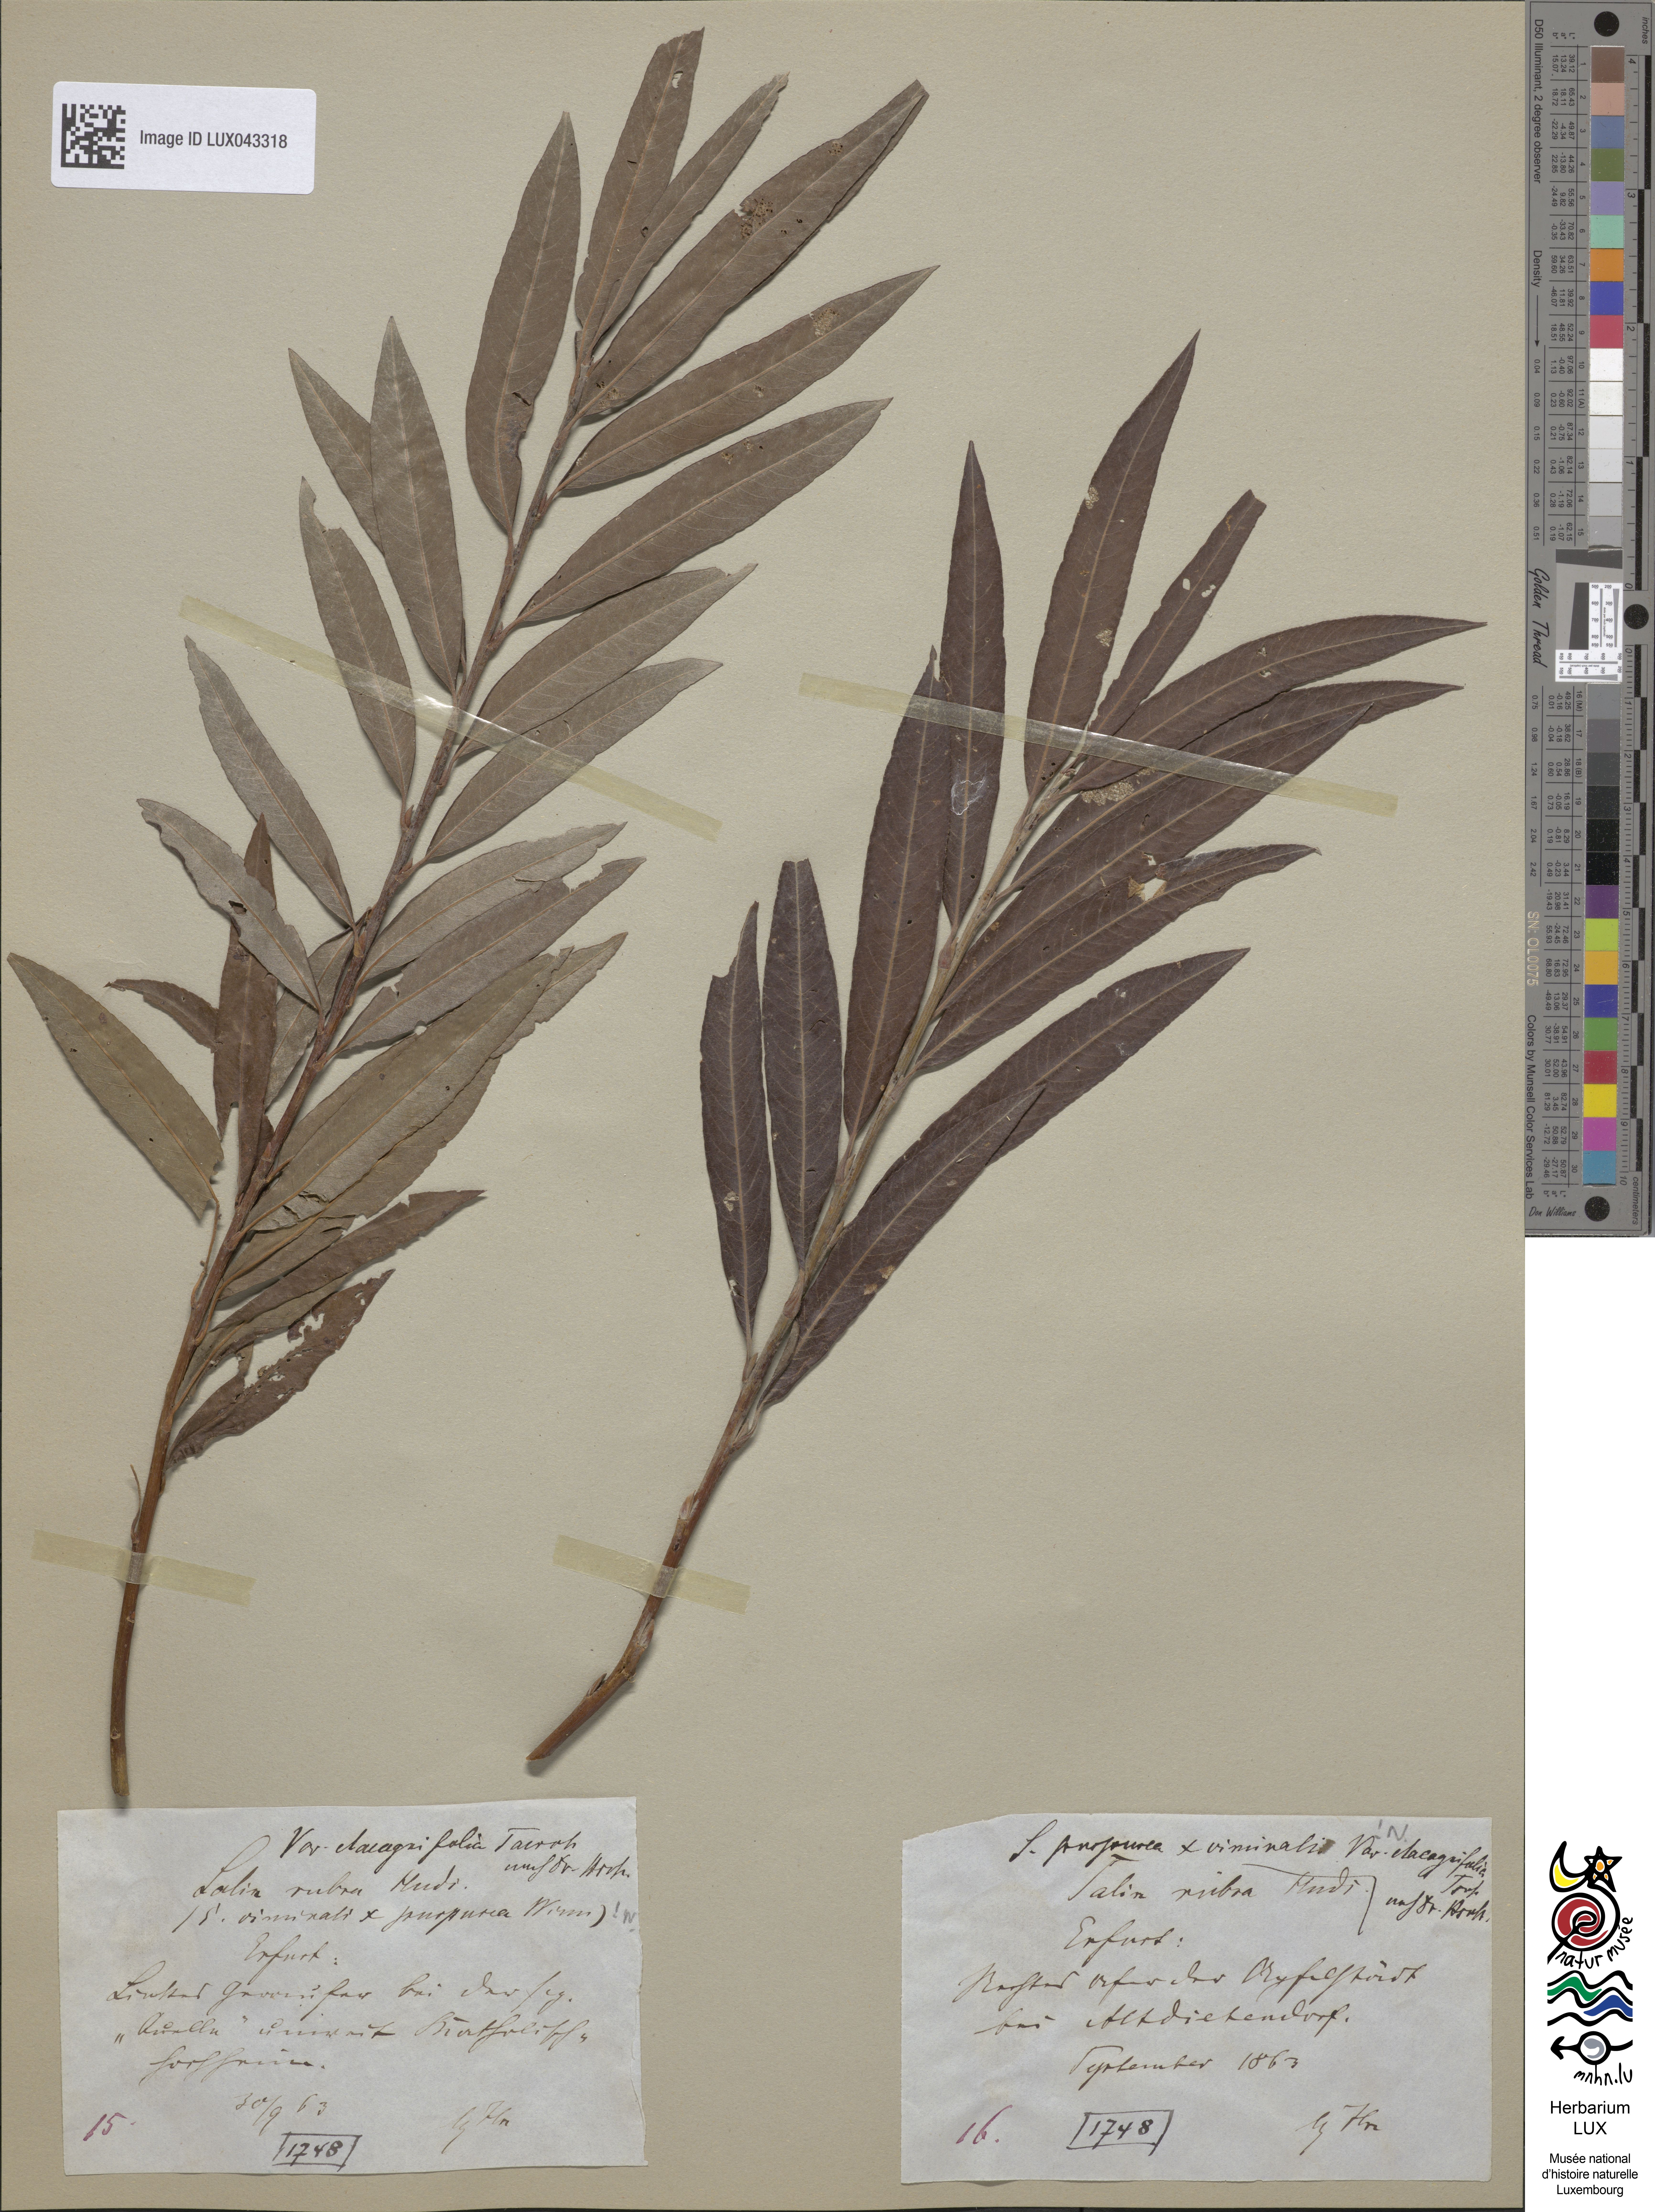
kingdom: Plantae
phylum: Tracheophyta
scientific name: Tracheophyta
